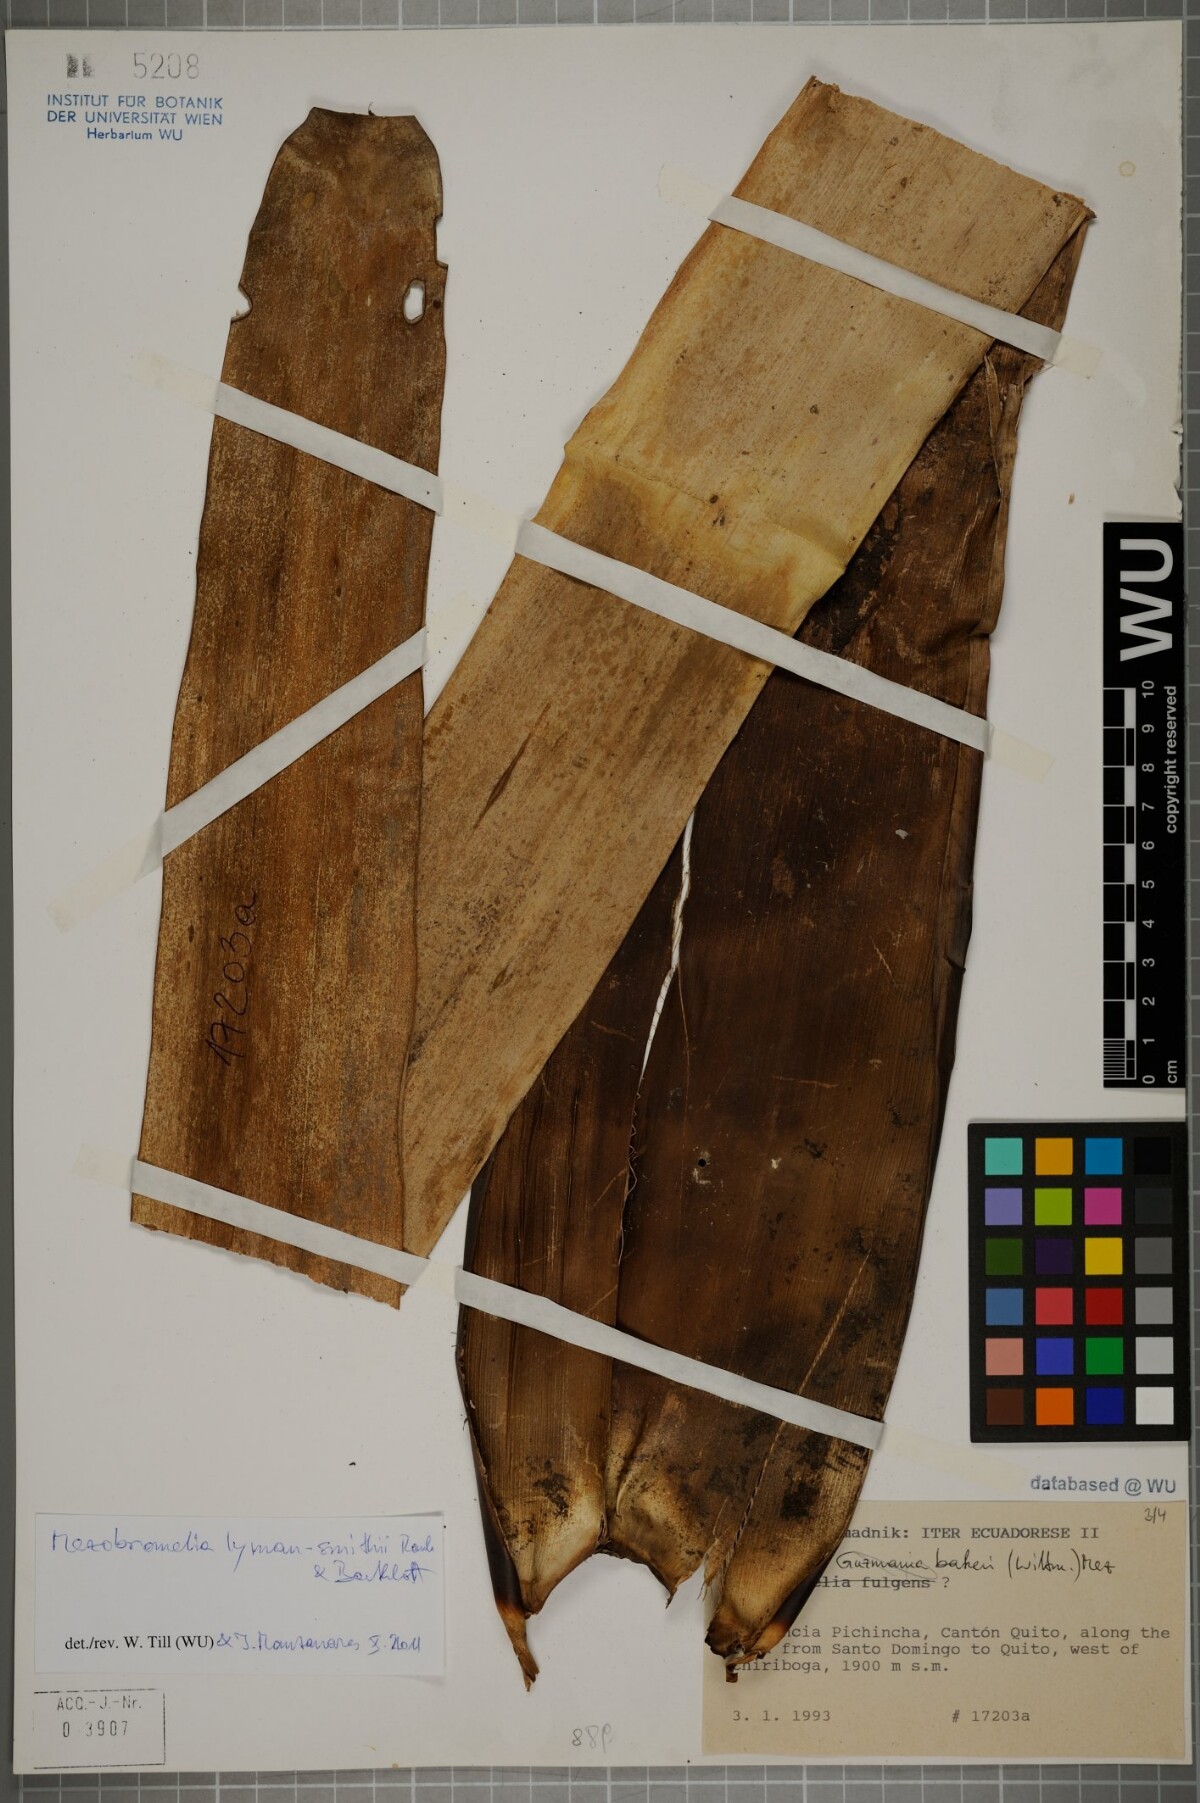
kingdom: Plantae
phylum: Tracheophyta
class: Liliopsida
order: Poales
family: Bromeliaceae
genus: Gregbrownia
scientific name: Gregbrownia lyman-smithii
